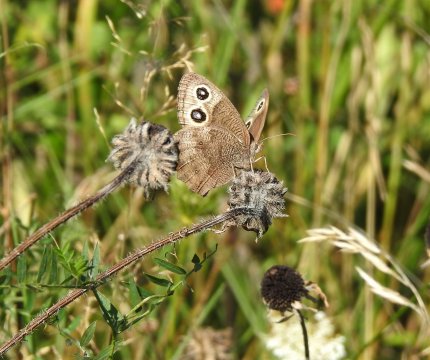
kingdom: Animalia
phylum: Arthropoda
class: Insecta
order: Lepidoptera
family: Nymphalidae
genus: Cercyonis
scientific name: Cercyonis pegala
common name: Common Wood-Nymph
